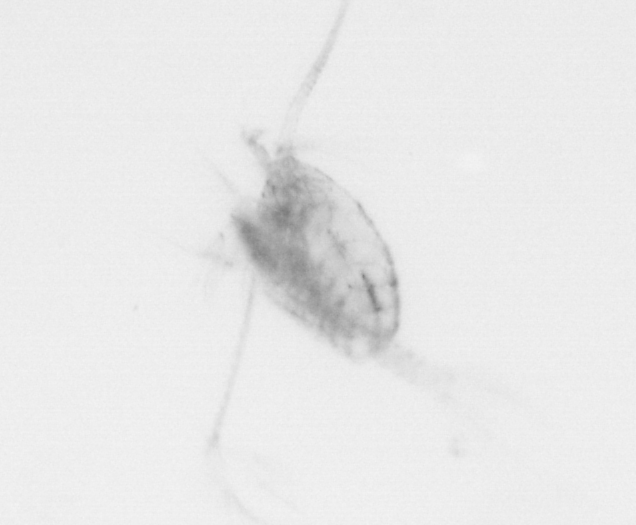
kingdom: Animalia
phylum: Arthropoda
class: Copepoda
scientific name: Copepoda
